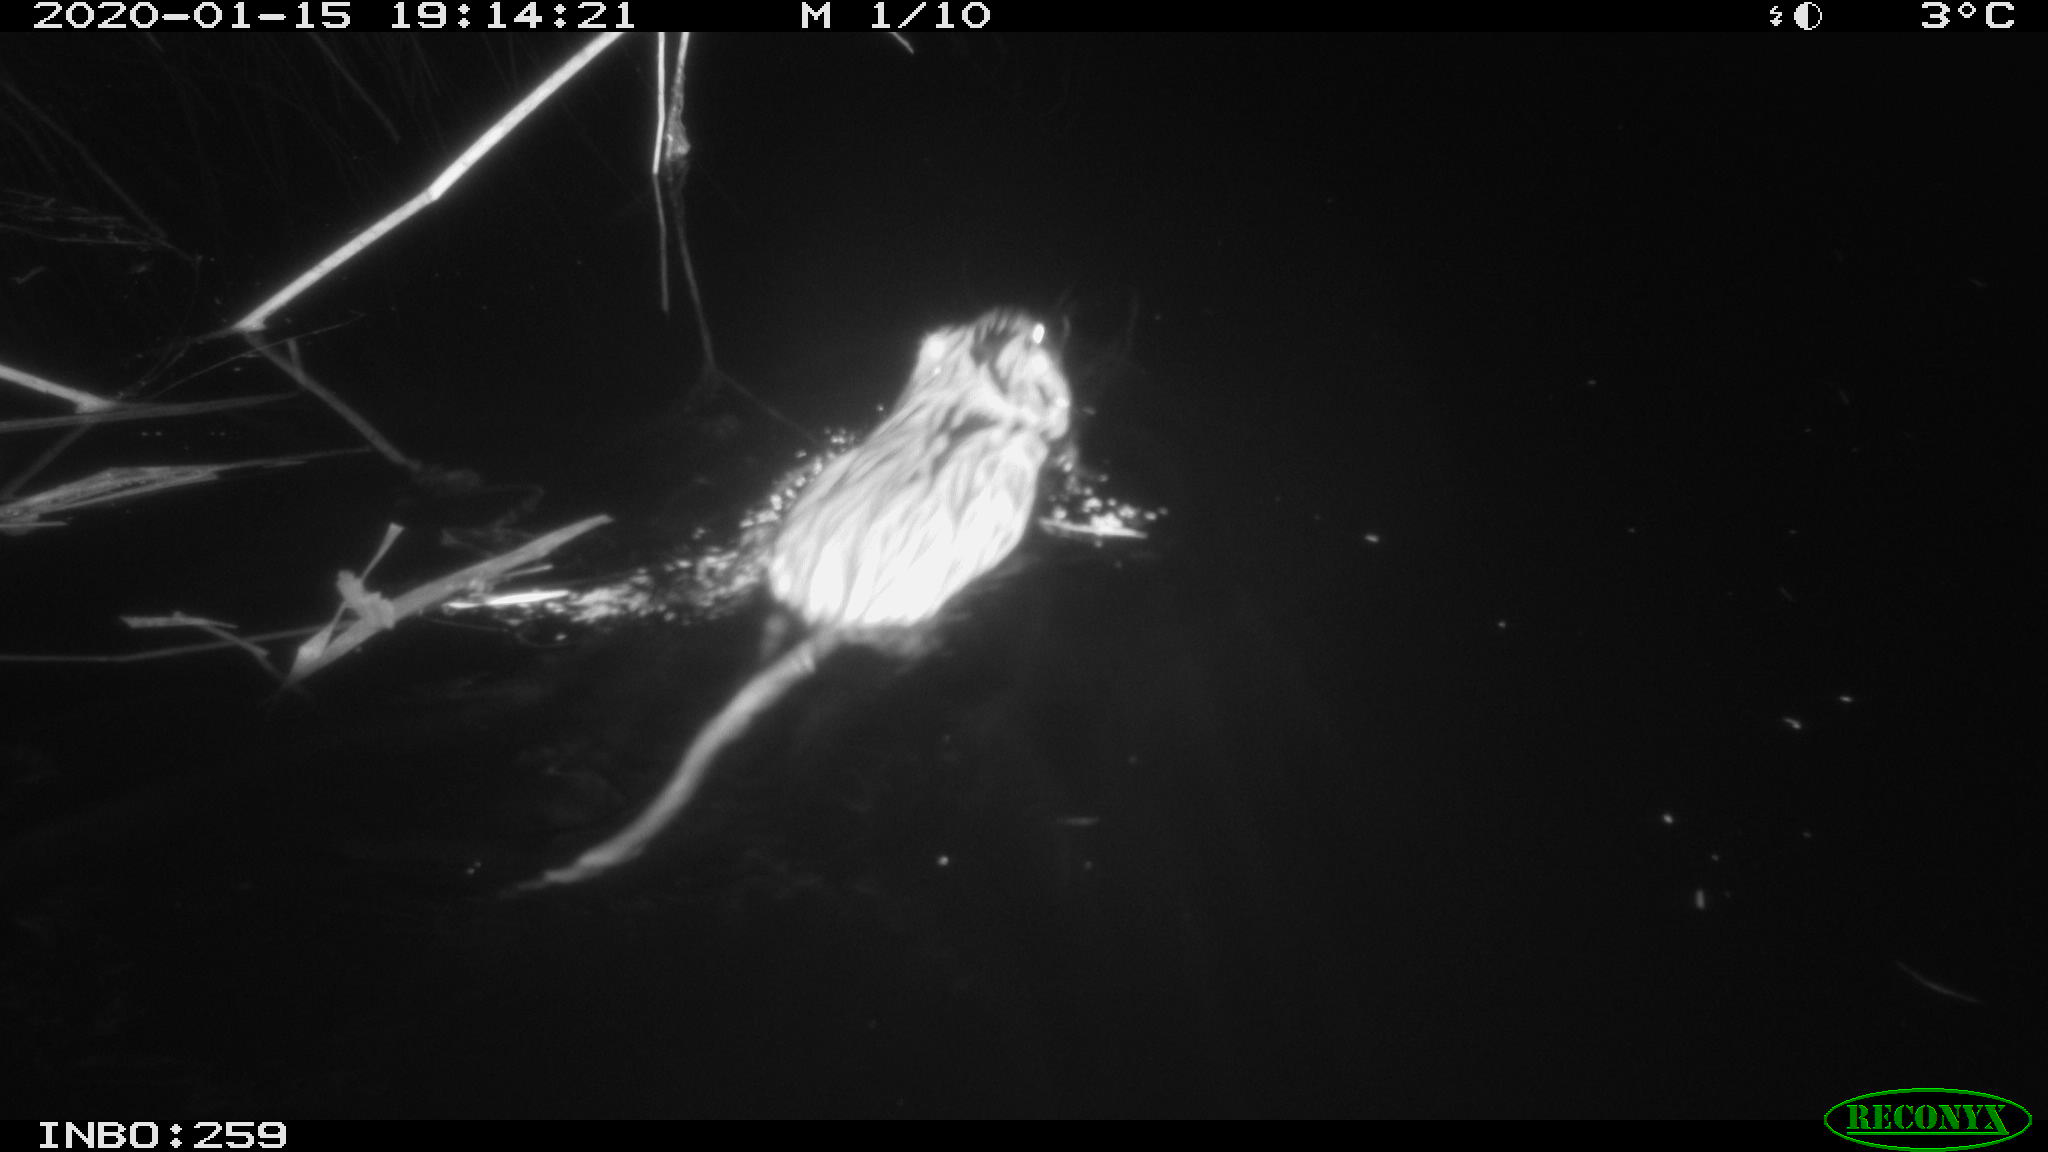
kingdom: Animalia
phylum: Chordata
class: Mammalia
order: Rodentia
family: Cricetidae
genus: Ondatra
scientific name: Ondatra zibethicus
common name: Muskrat
